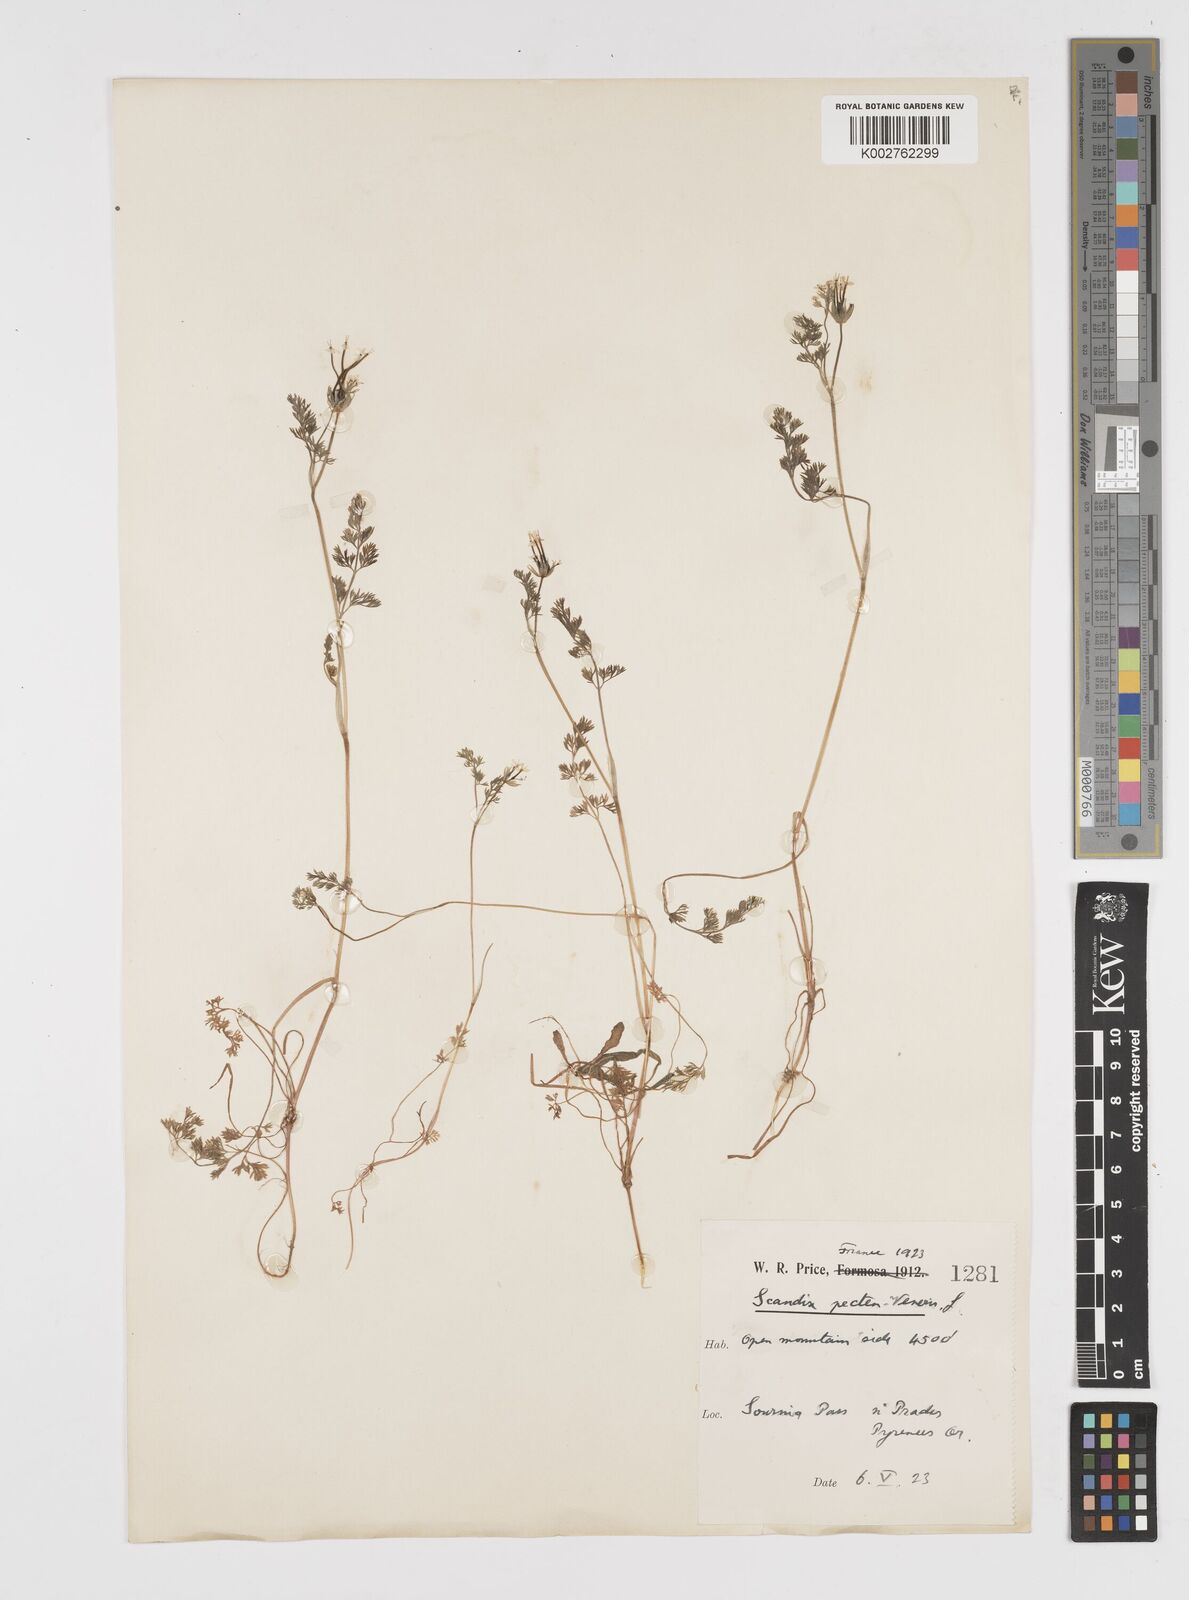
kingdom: Plantae
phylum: Tracheophyta
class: Magnoliopsida
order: Apiales
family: Apiaceae
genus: Scandix
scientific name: Scandix pecten-veneris
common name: Shepherd's-needle
